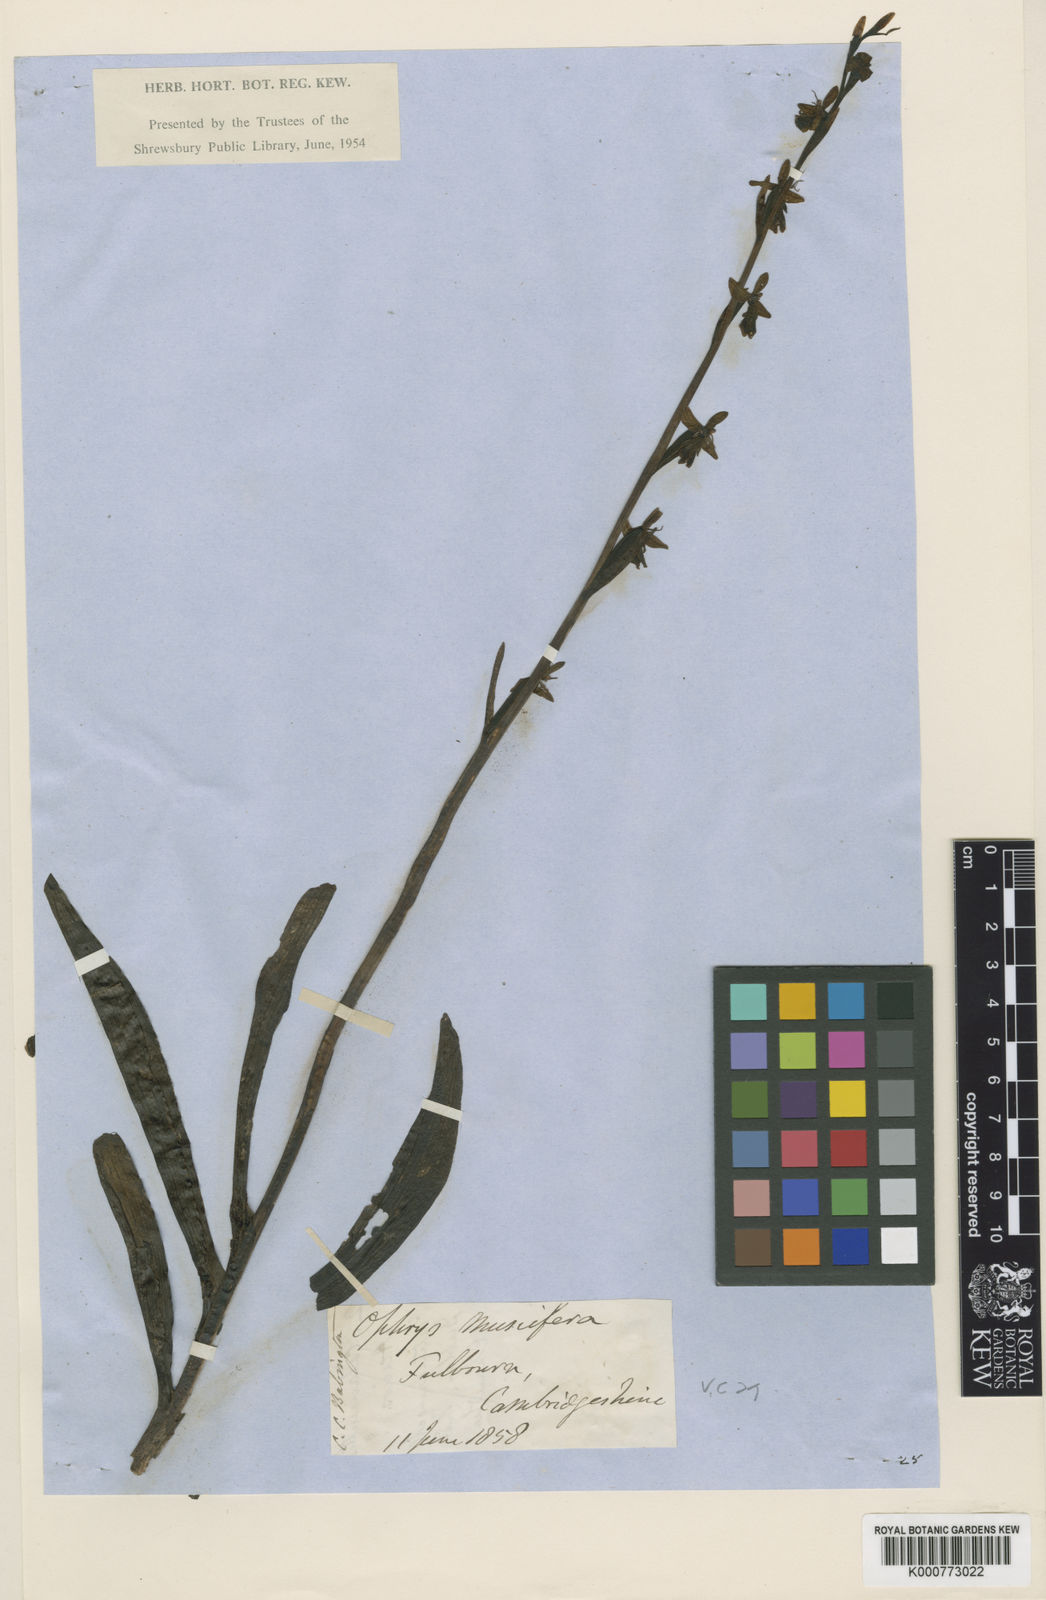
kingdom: Plantae
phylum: Tracheophyta
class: Liliopsida
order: Asparagales
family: Orchidaceae
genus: Ophrys
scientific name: Ophrys insectifera
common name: Fly orchid
